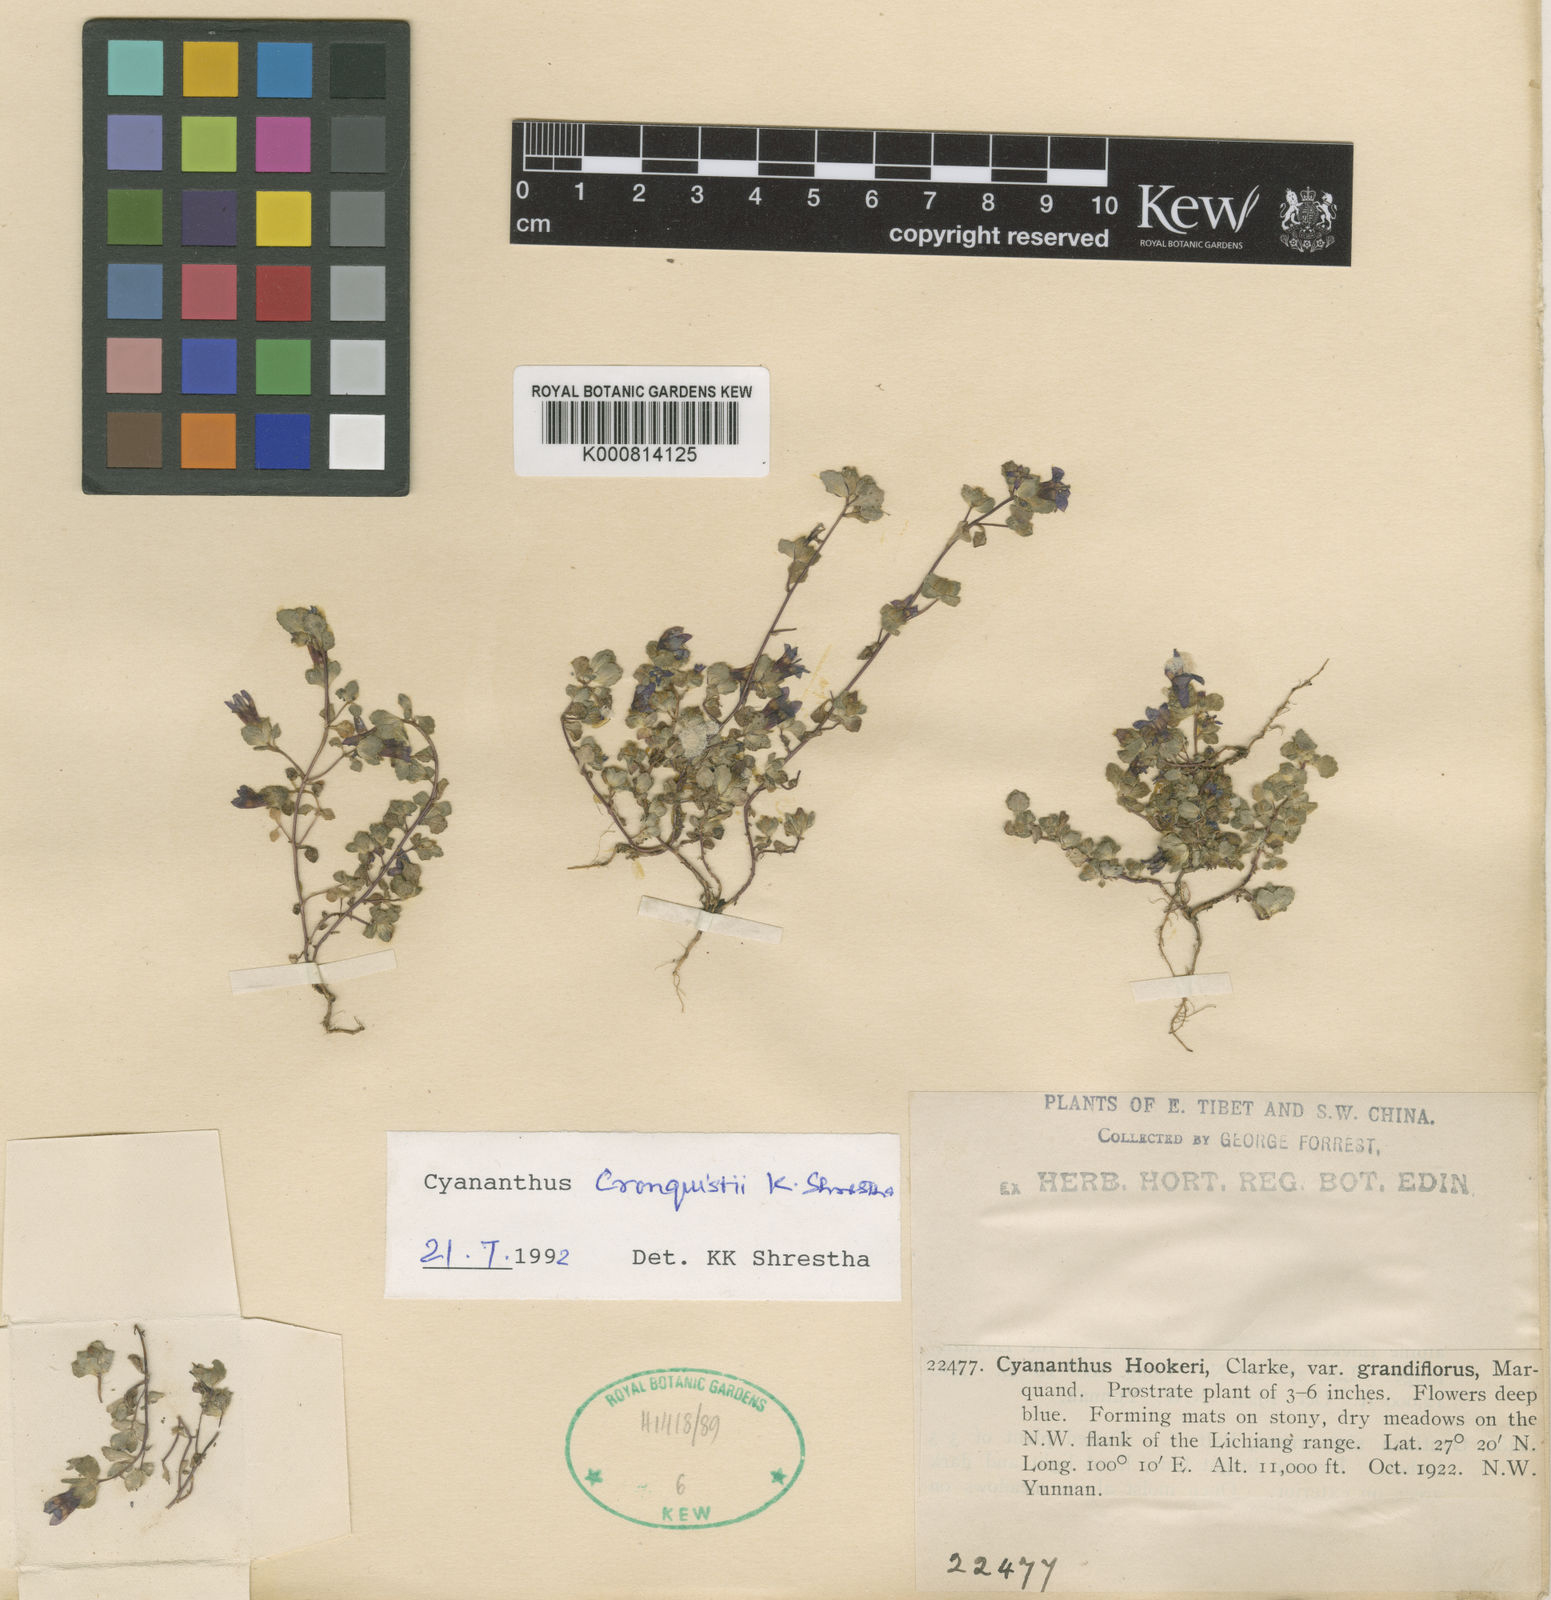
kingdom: Plantae
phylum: Tracheophyta
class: Magnoliopsida
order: Asterales
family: Campanulaceae
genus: Cyananthus
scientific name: Cyananthus hookeri
